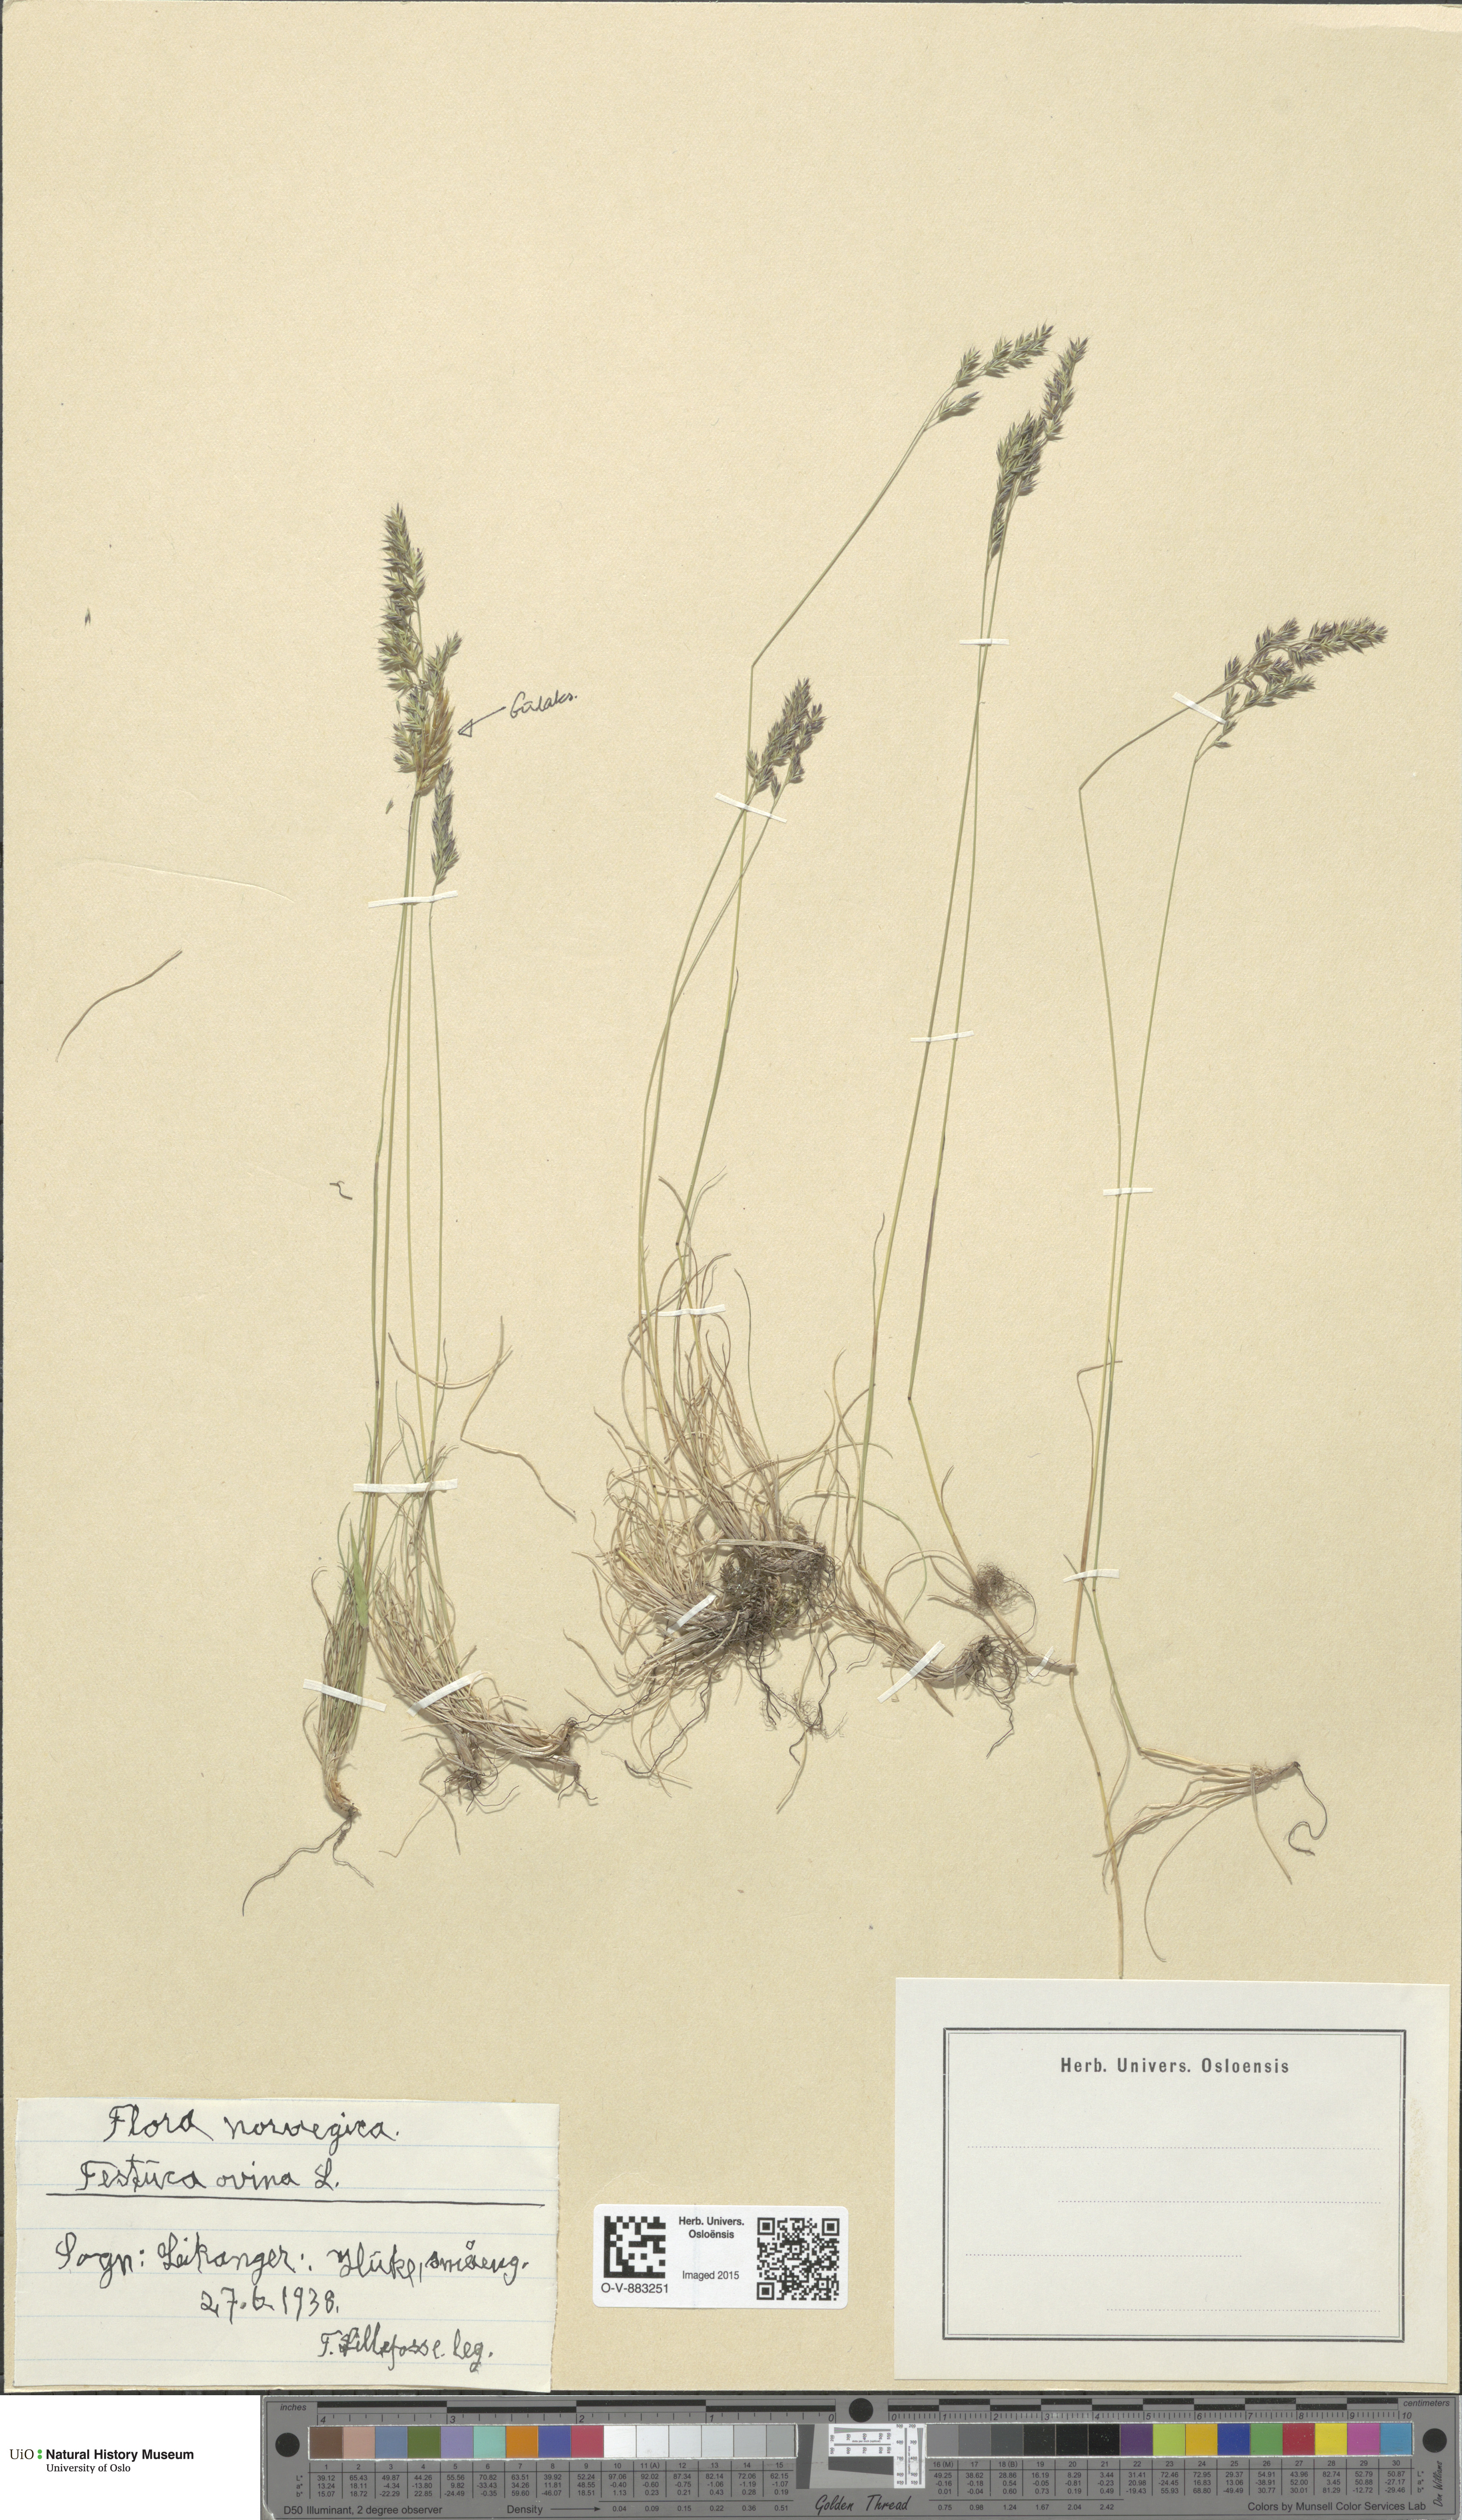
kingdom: Plantae
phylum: Tracheophyta
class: Liliopsida
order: Poales
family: Poaceae
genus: Festuca
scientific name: Festuca ovina
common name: Sheep fescue
